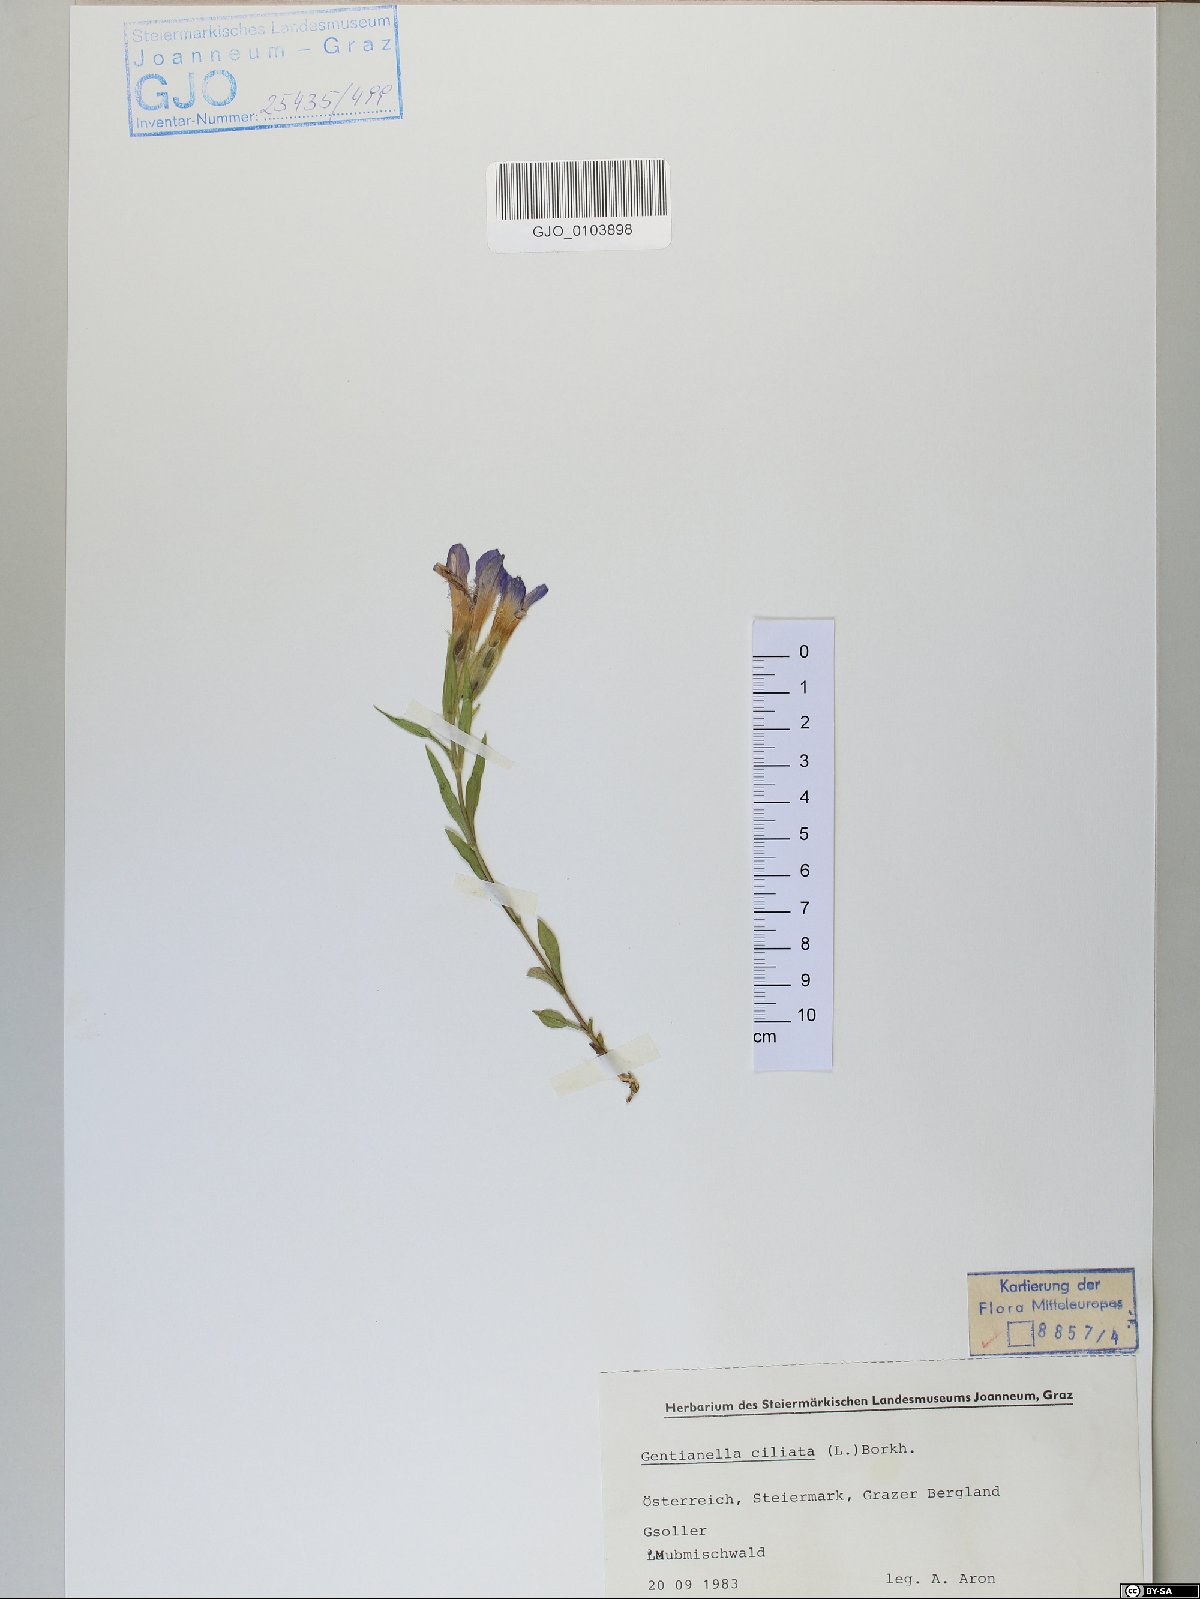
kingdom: Plantae
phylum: Tracheophyta
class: Magnoliopsida
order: Gentianales
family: Gentianaceae
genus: Gentianopsis
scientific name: Gentianopsis ciliata
